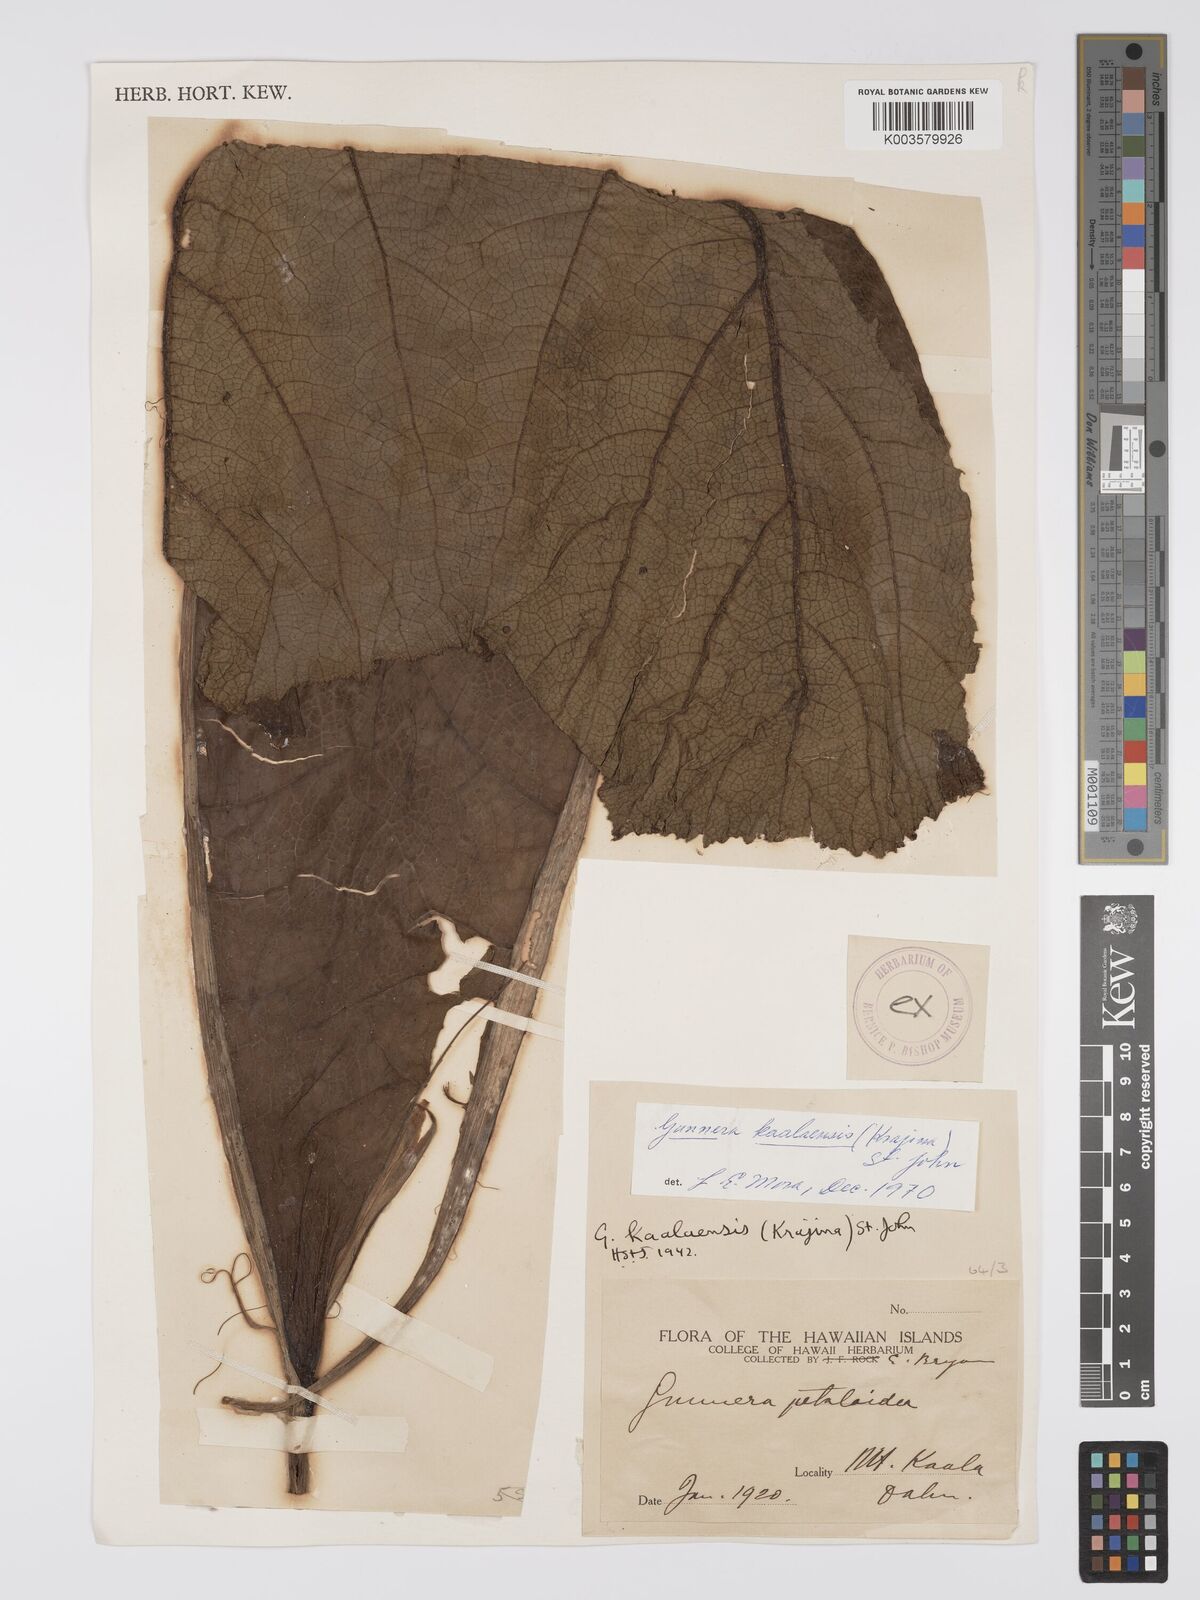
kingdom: Plantae
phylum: Tracheophyta
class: Magnoliopsida
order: Gunnerales
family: Gunneraceae
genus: Gunnera
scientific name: Gunnera petaloidea
